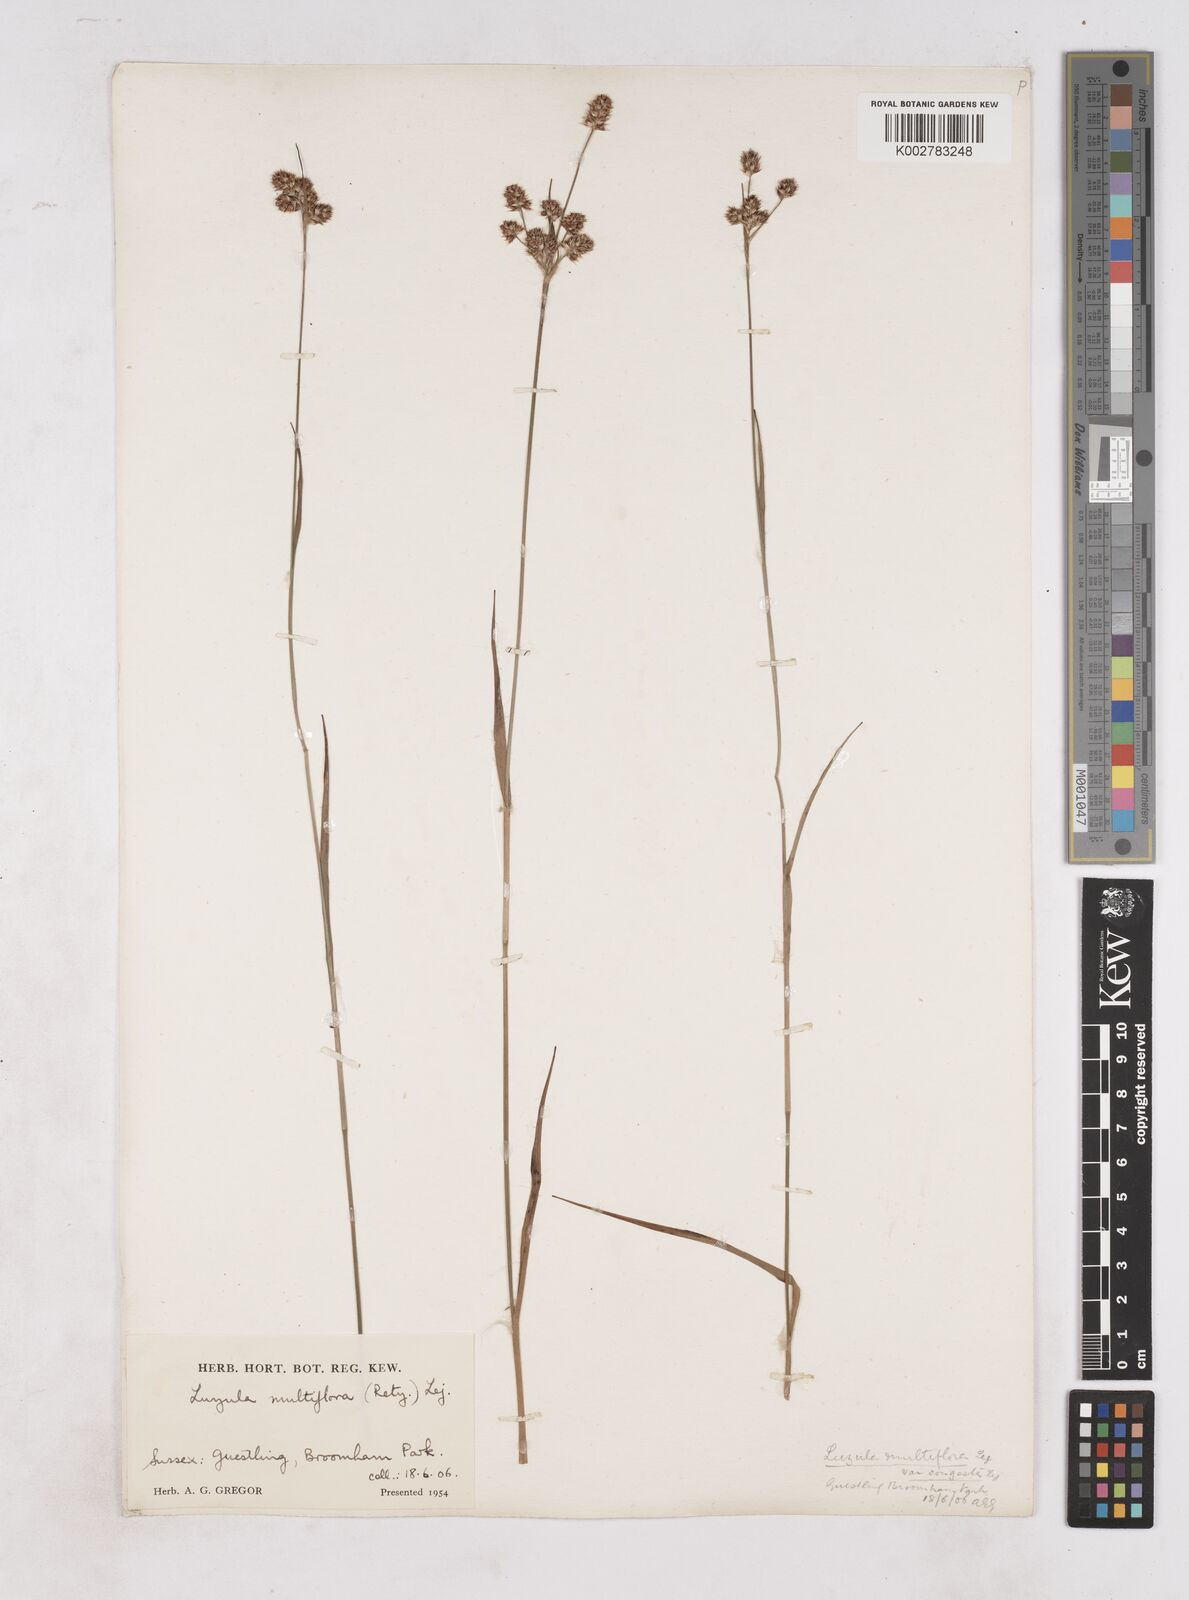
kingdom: Plantae
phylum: Tracheophyta
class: Liliopsida
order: Poales
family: Juncaceae
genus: Luzula
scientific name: Luzula multiflora
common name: Heath wood-rush
